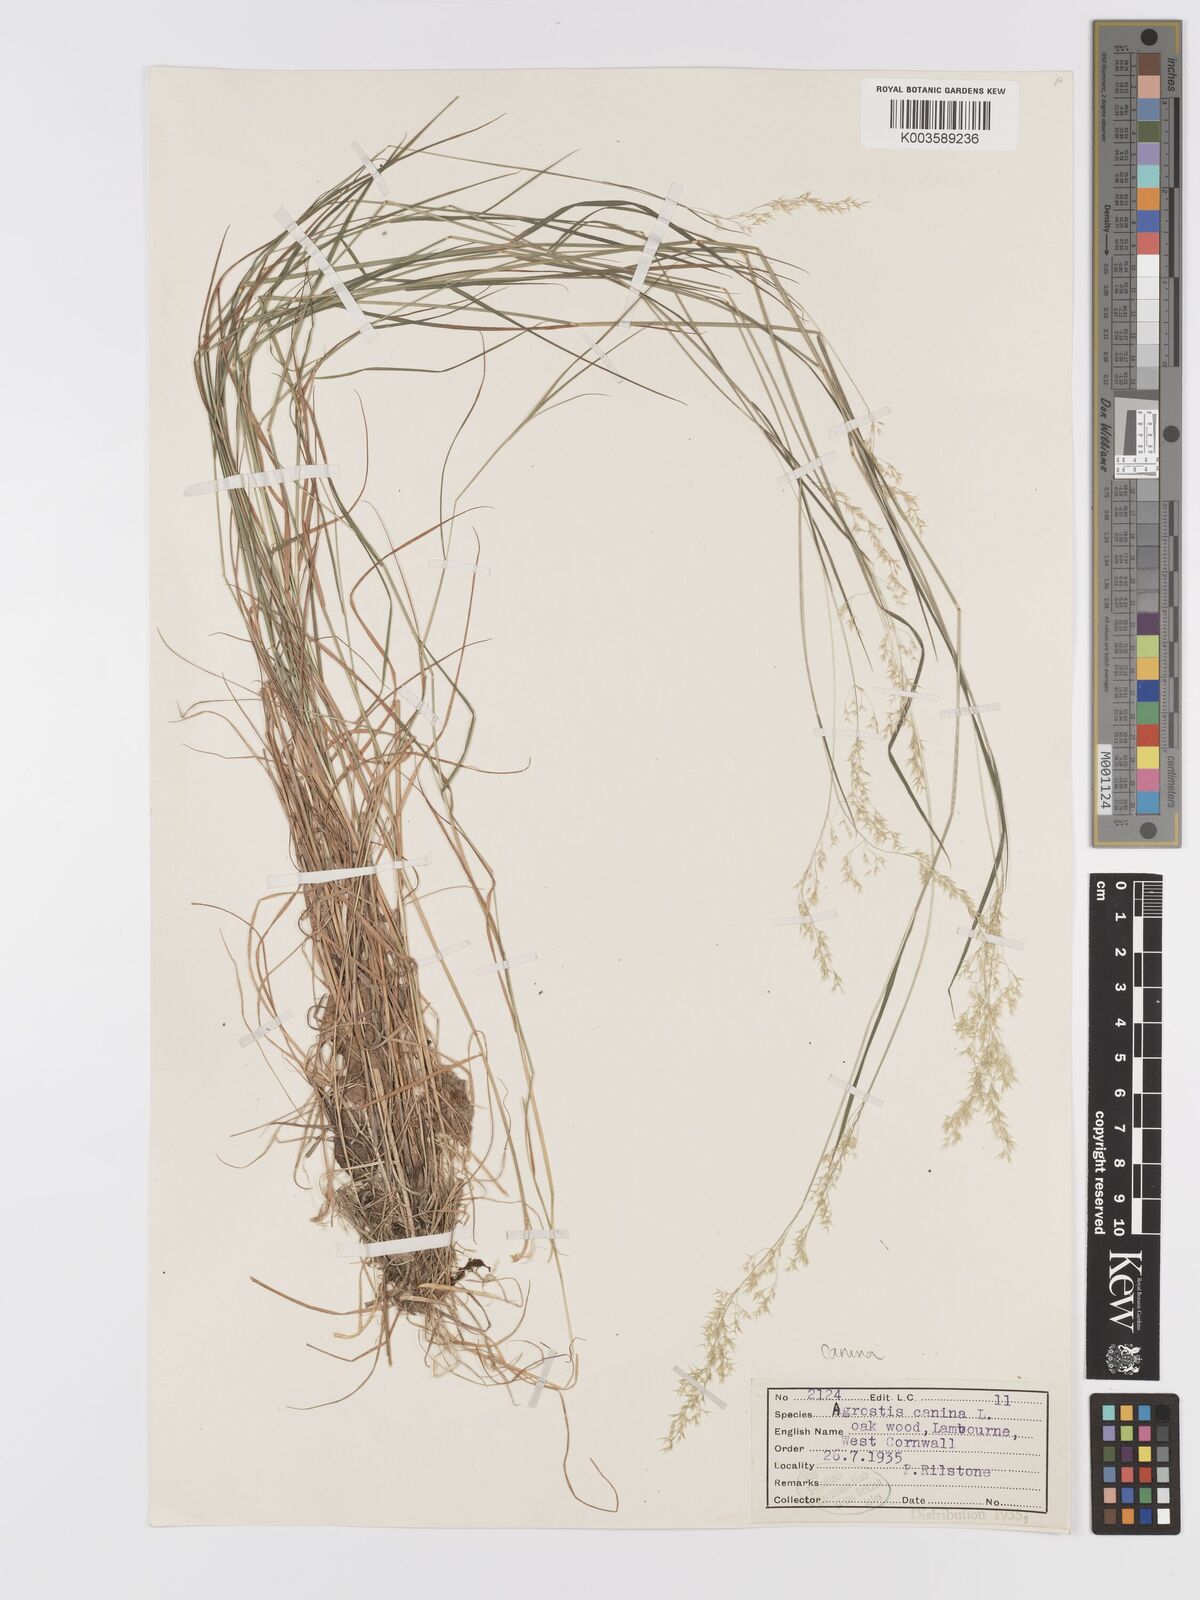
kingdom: Plantae
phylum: Tracheophyta
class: Liliopsida
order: Poales
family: Poaceae
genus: Agrostis
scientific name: Agrostis canina
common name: Velvet bent
